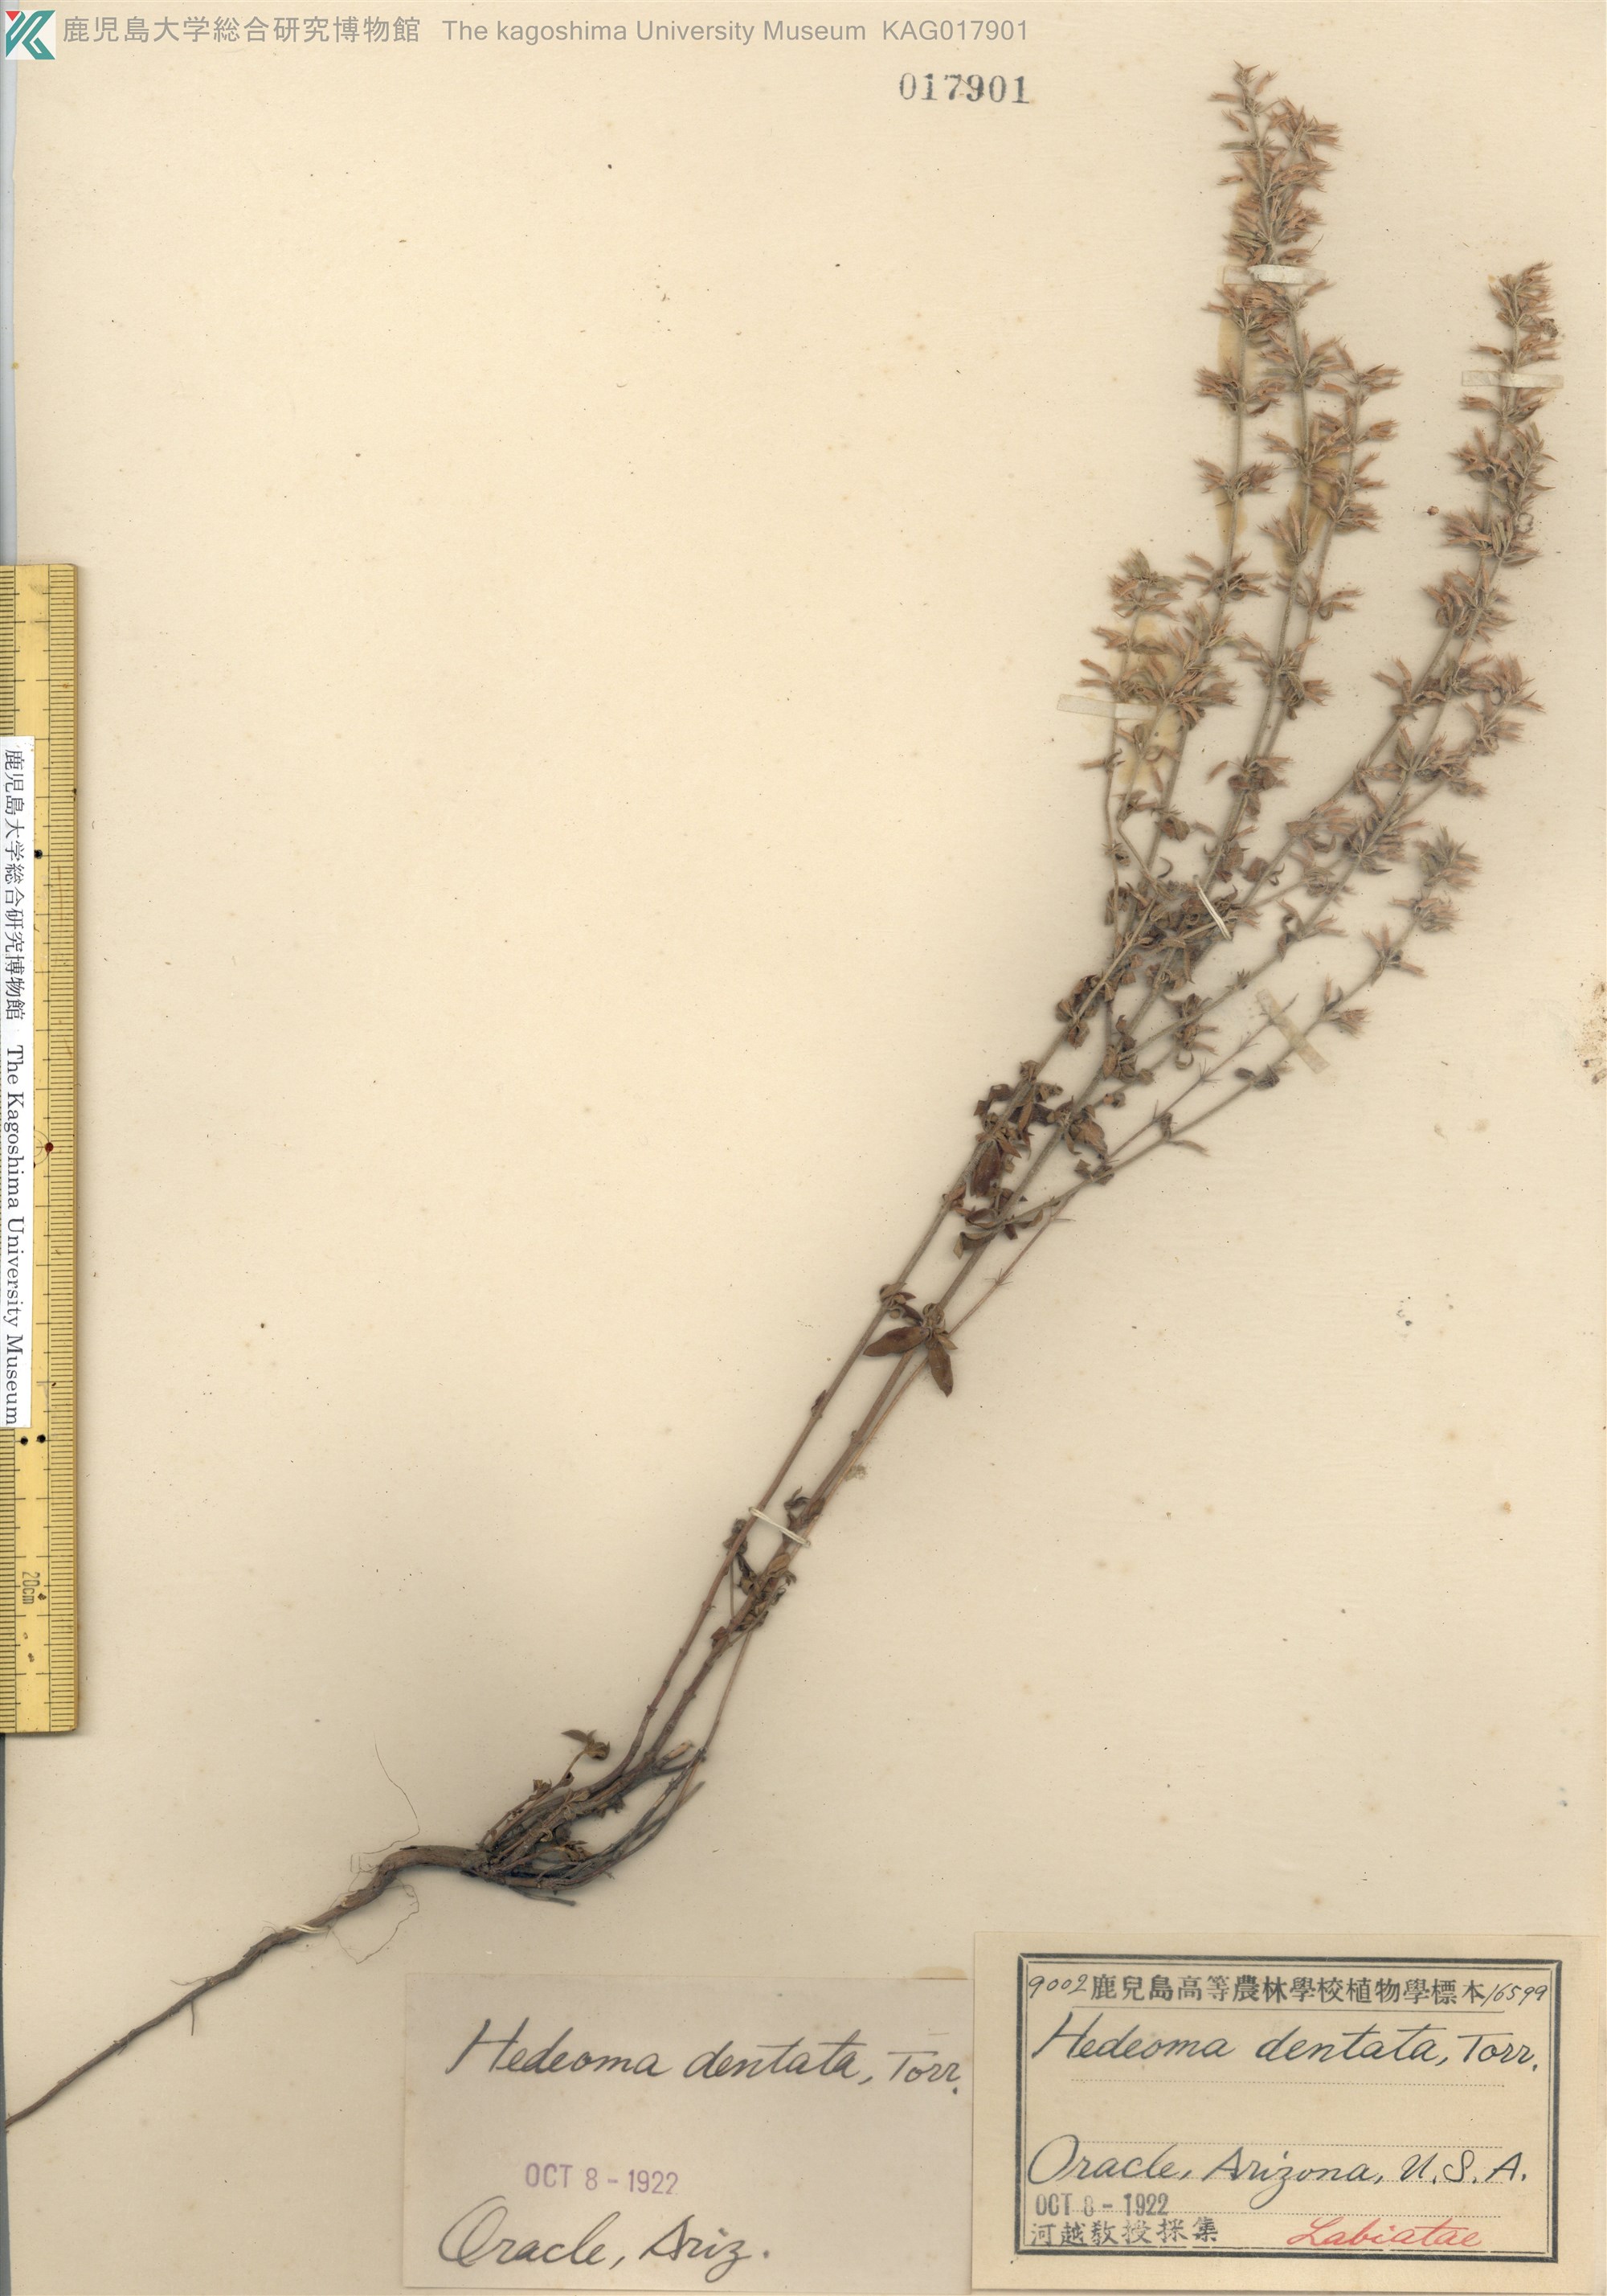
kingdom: Plantae
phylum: Tracheophyta
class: Magnoliopsida
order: Lamiales
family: Lamiaceae
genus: Hedeoma
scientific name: Hedeoma dentata
